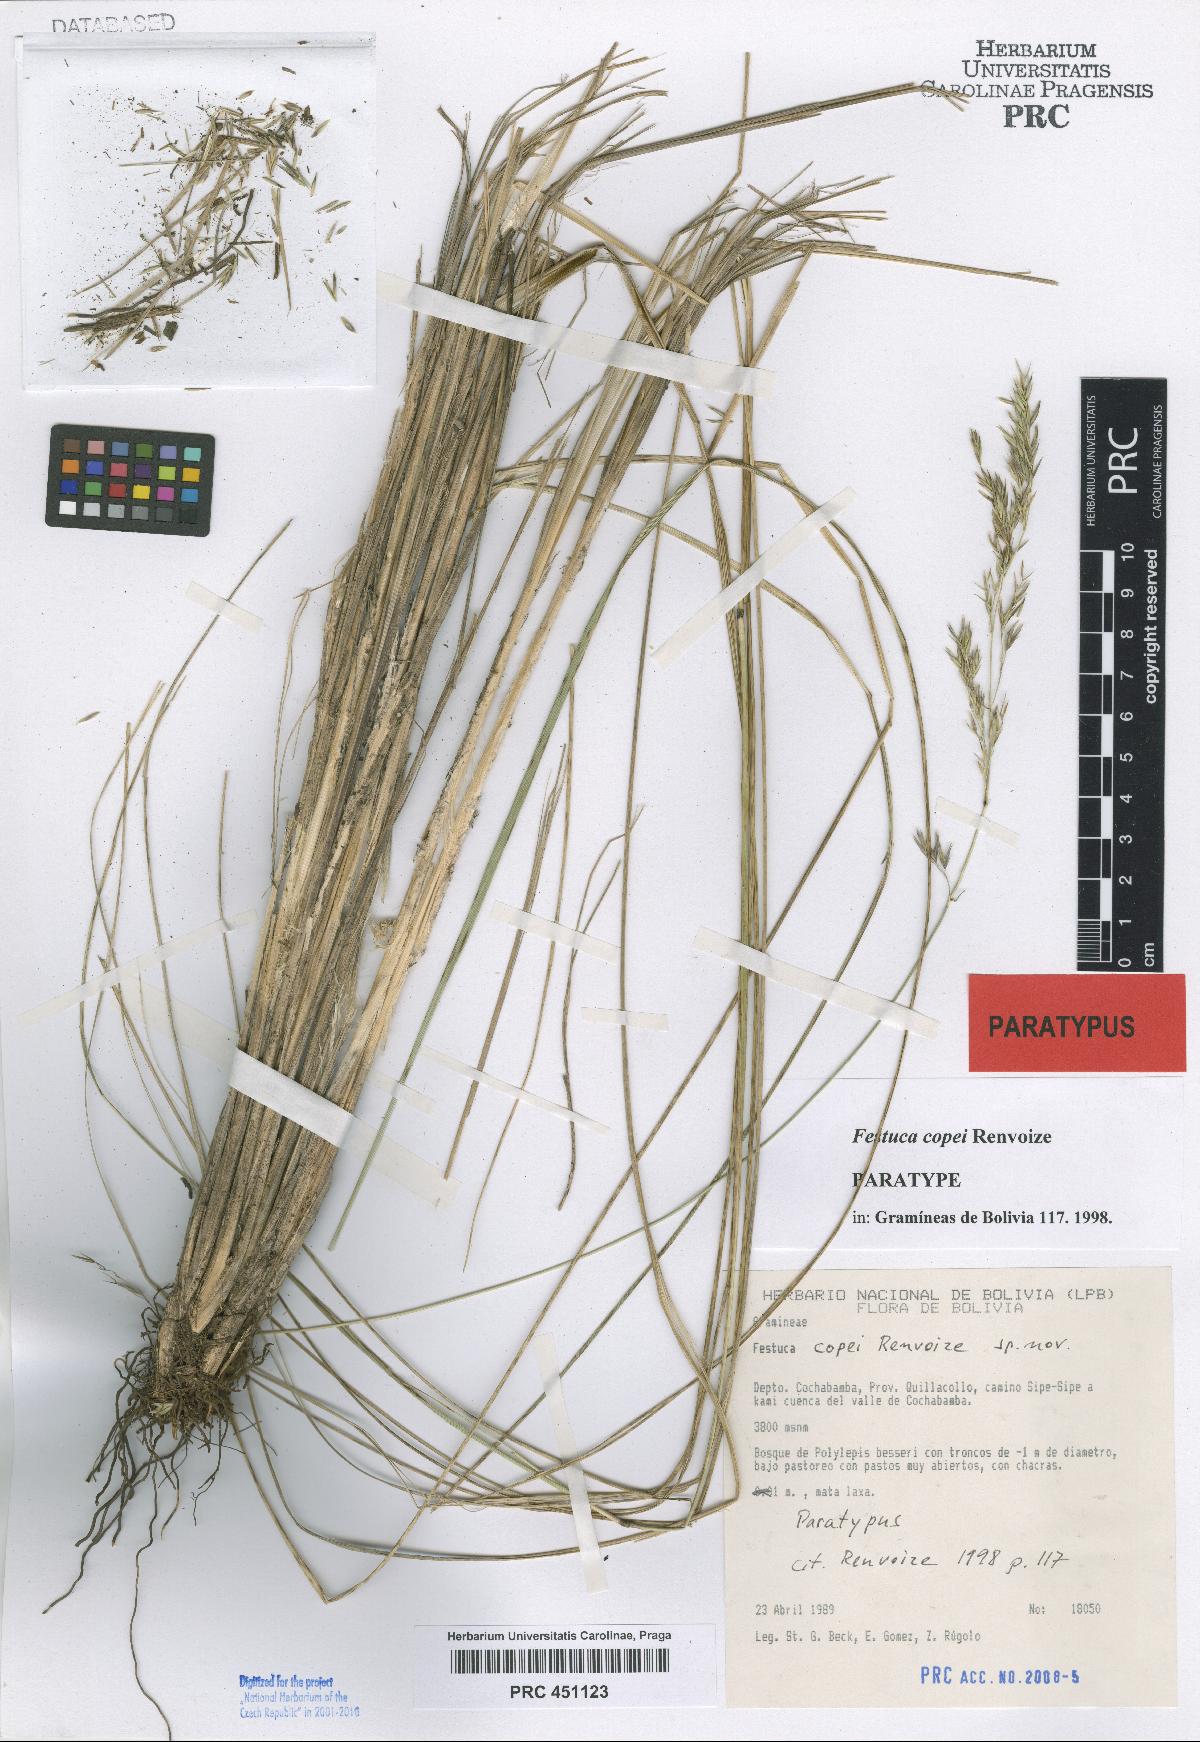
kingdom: Plantae
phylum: Tracheophyta
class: Liliopsida
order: Poales
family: Poaceae
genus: Festuca
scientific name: Festuca copei
